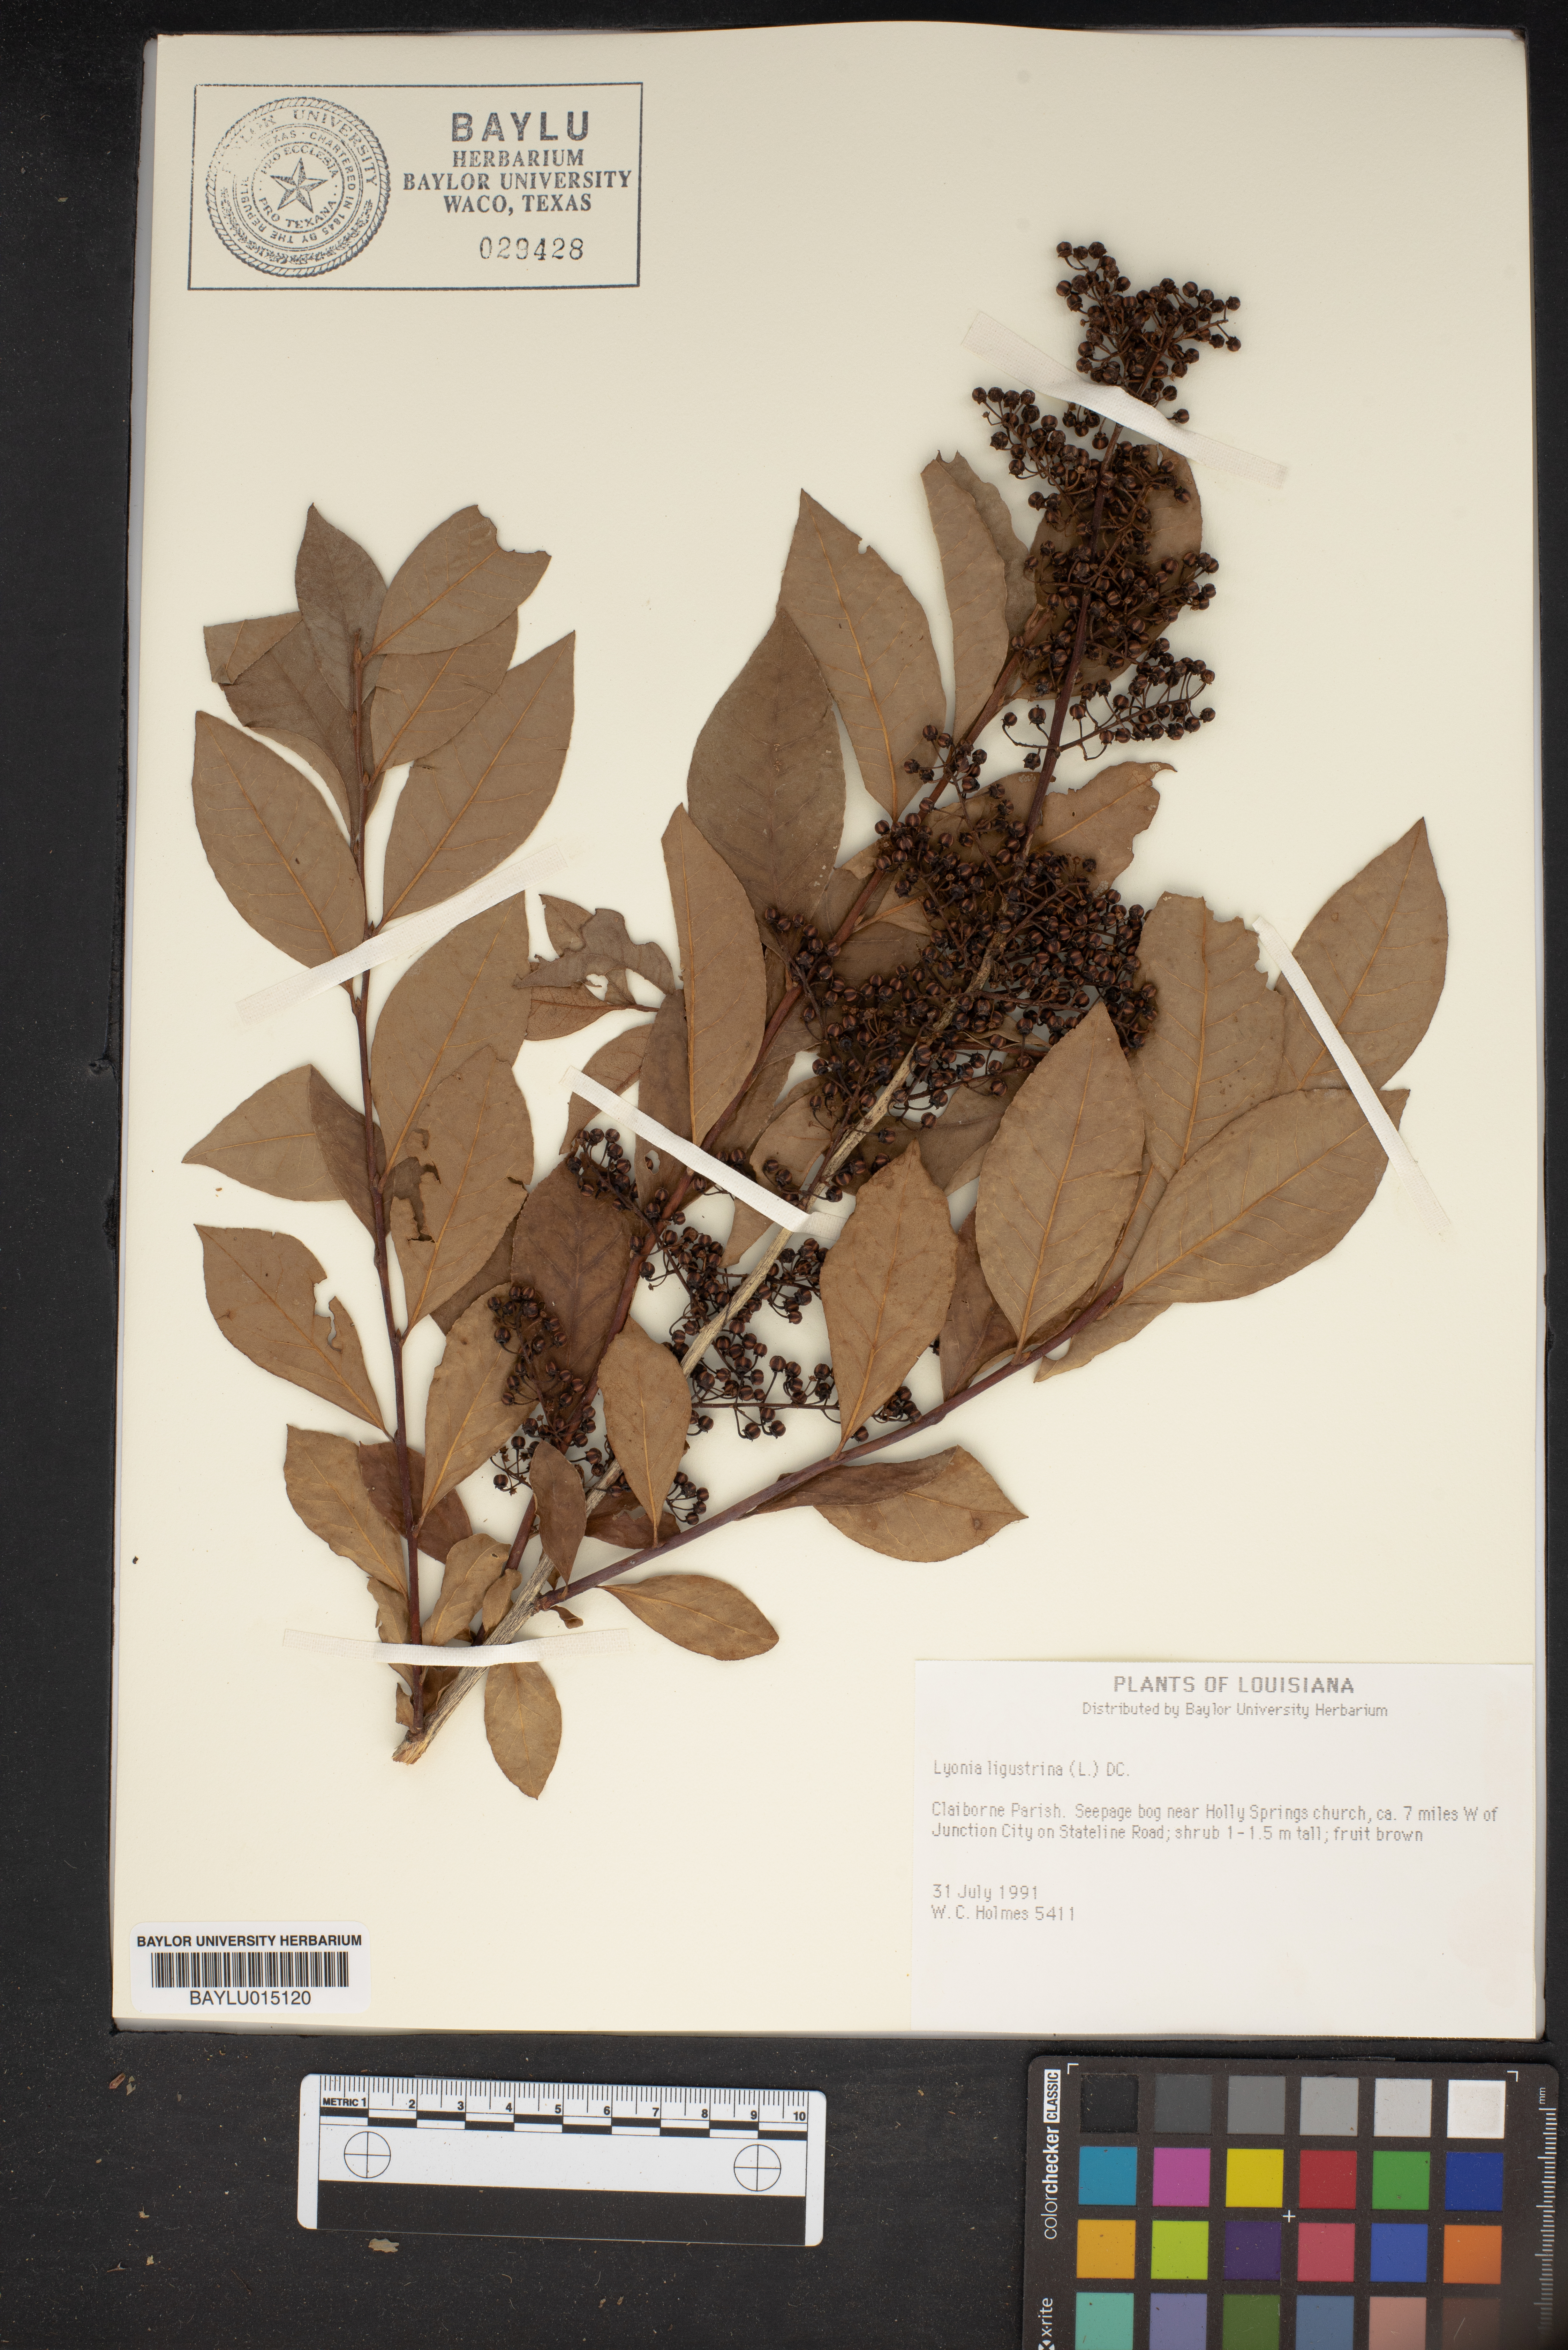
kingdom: Plantae
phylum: Tracheophyta
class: Magnoliopsida
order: Ericales
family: Ericaceae
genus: Lyonia
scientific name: Lyonia ligustrina
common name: Maleberry
